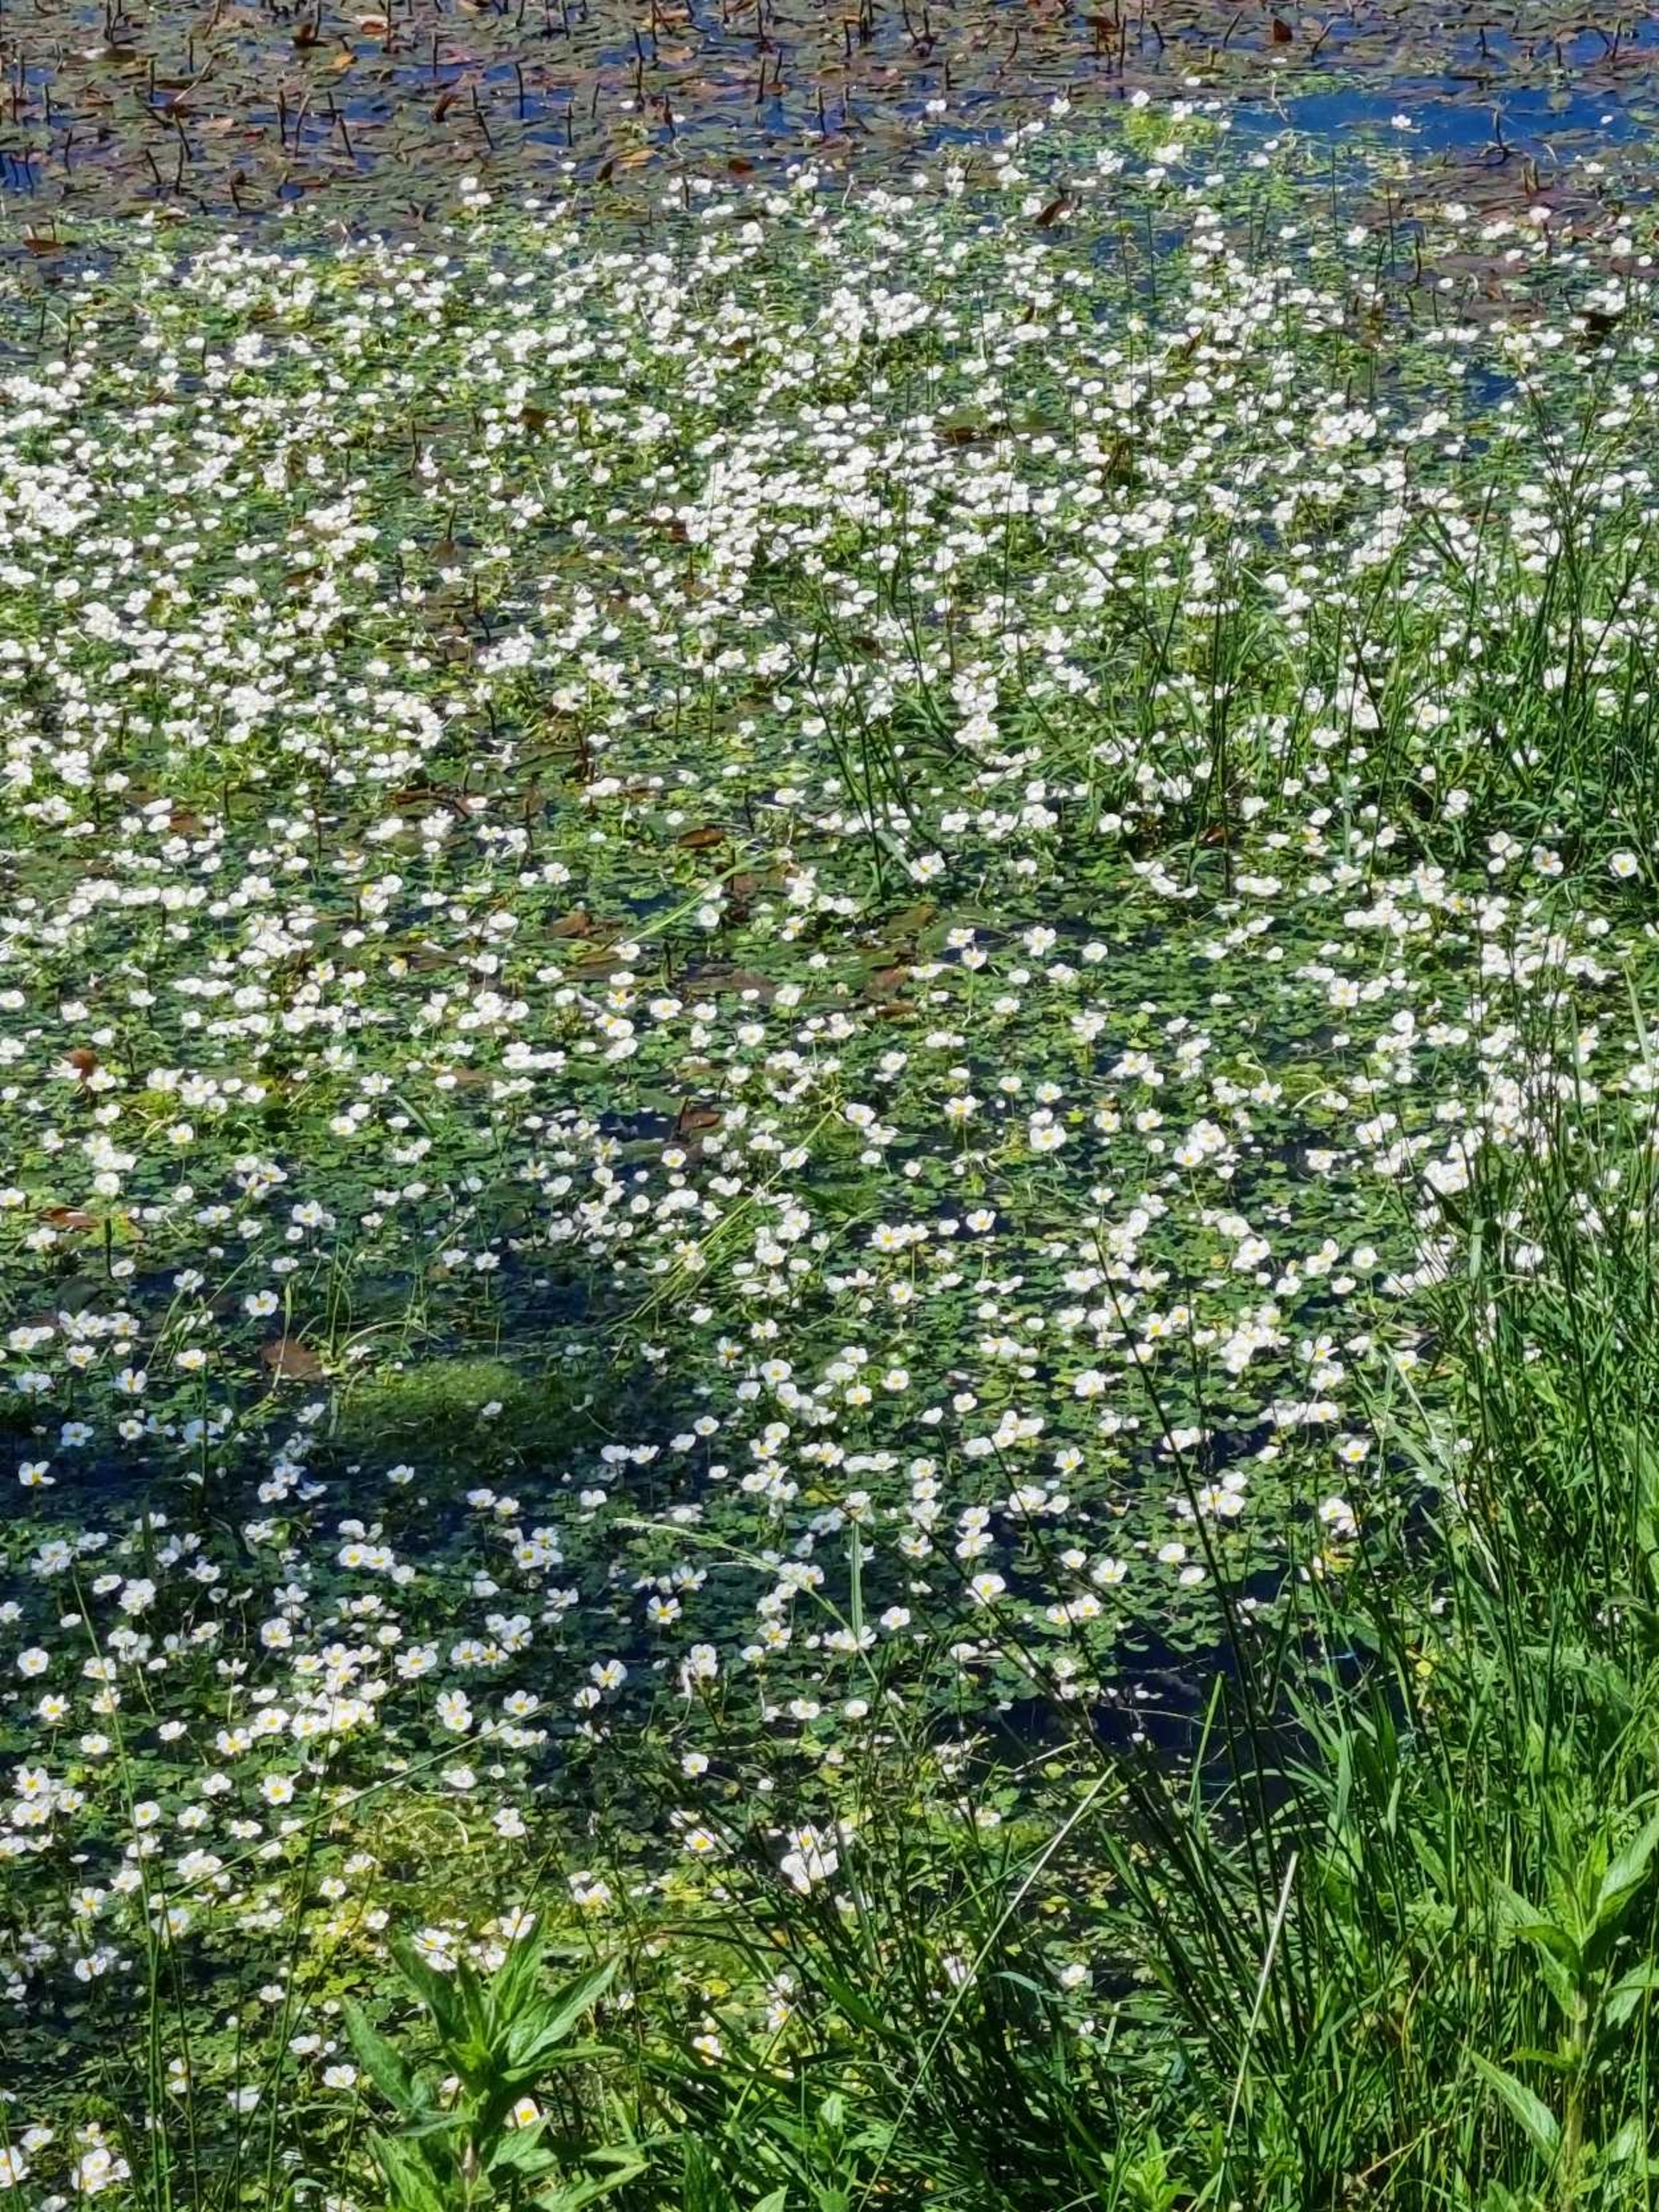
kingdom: Plantae
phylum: Tracheophyta
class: Magnoliopsida
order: Ranunculales
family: Ranunculaceae
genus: Ranunculus
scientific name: Ranunculus
